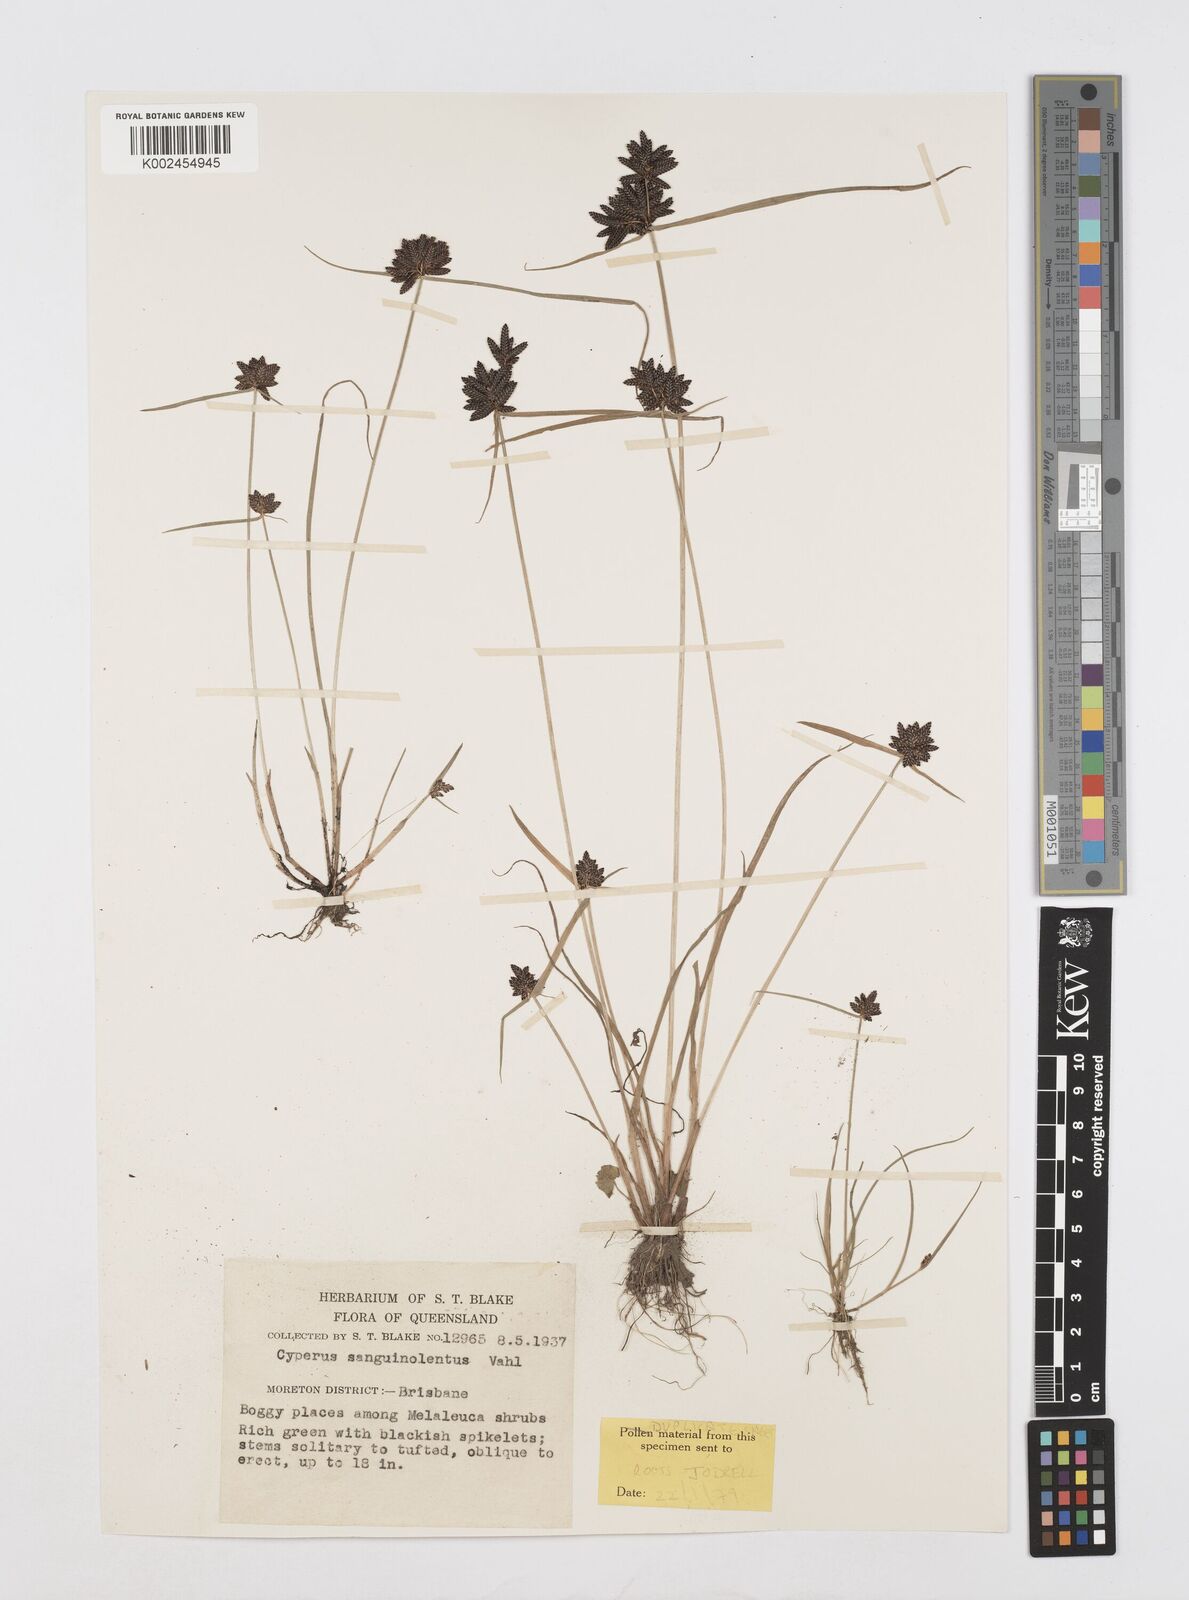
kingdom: Plantae
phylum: Tracheophyta
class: Liliopsida
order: Poales
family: Cyperaceae
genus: Cyperus
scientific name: Cyperus sanguinolentus
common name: Purpleglume flatsedge
